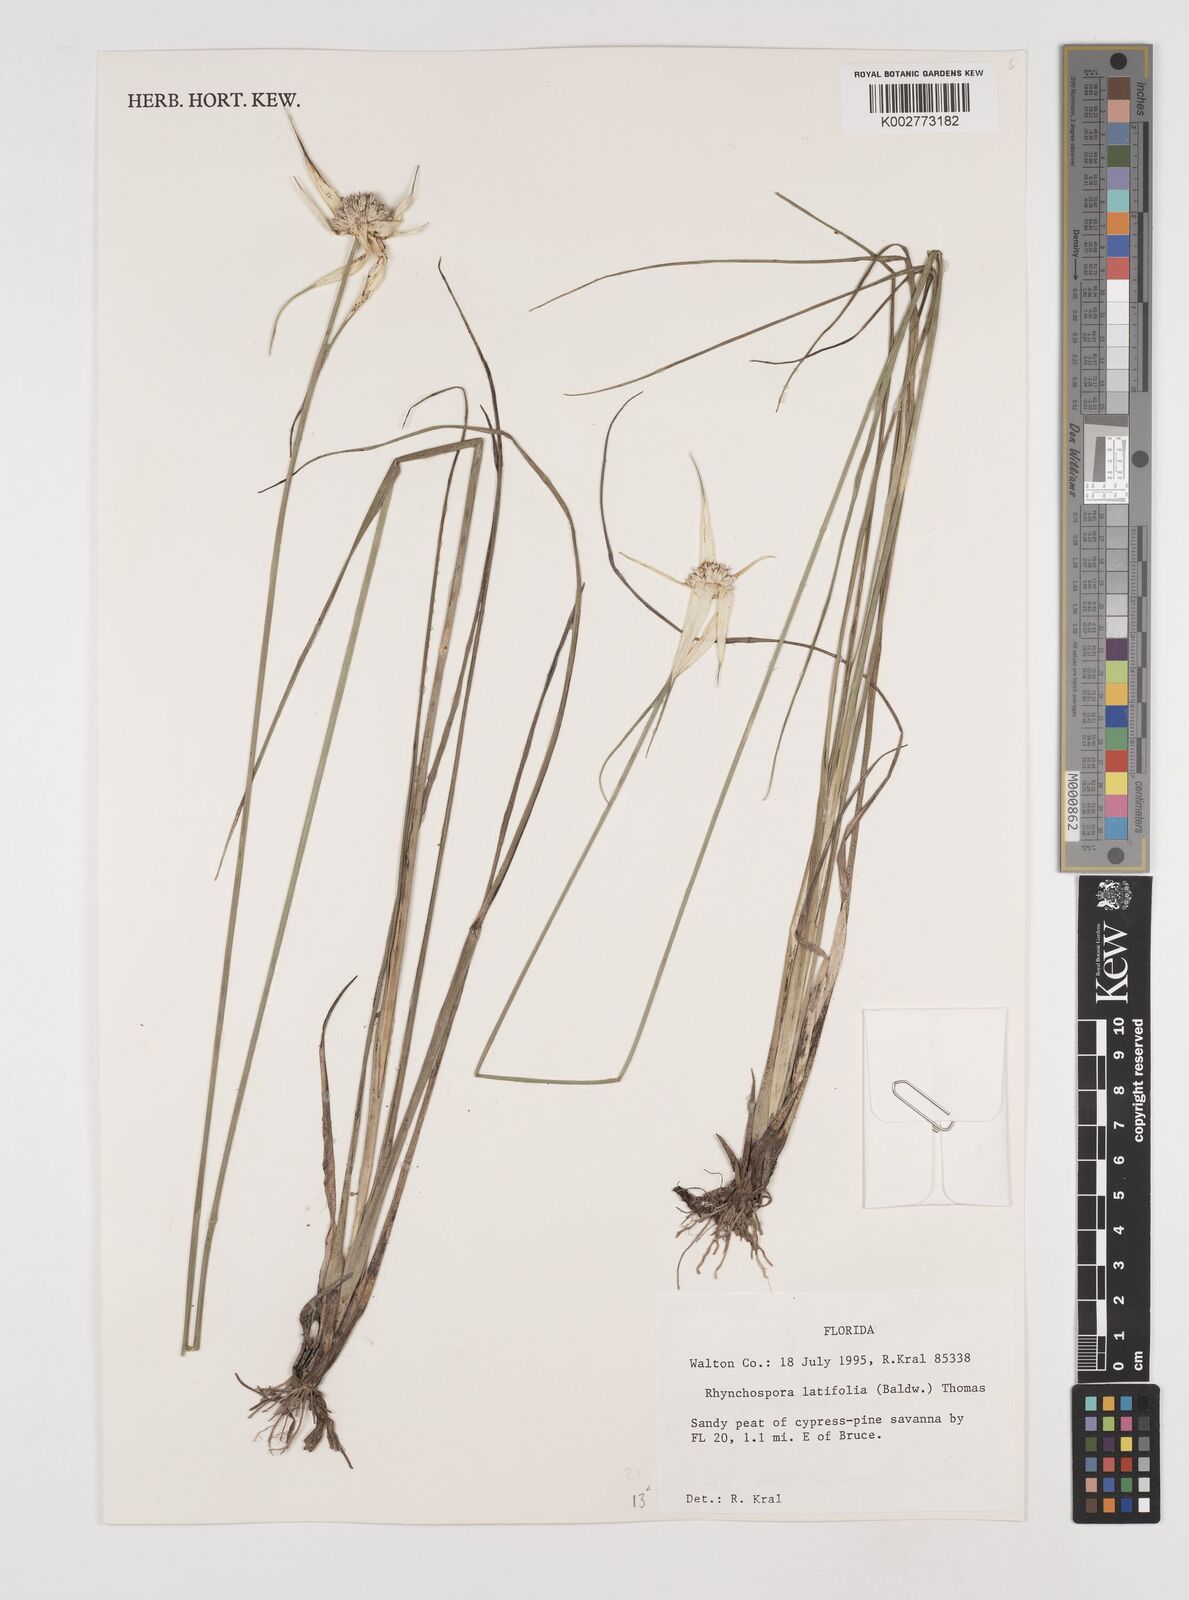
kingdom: Plantae
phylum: Tracheophyta
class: Liliopsida
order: Poales
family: Cyperaceae
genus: Rhynchospora
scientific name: Rhynchospora latifolia
